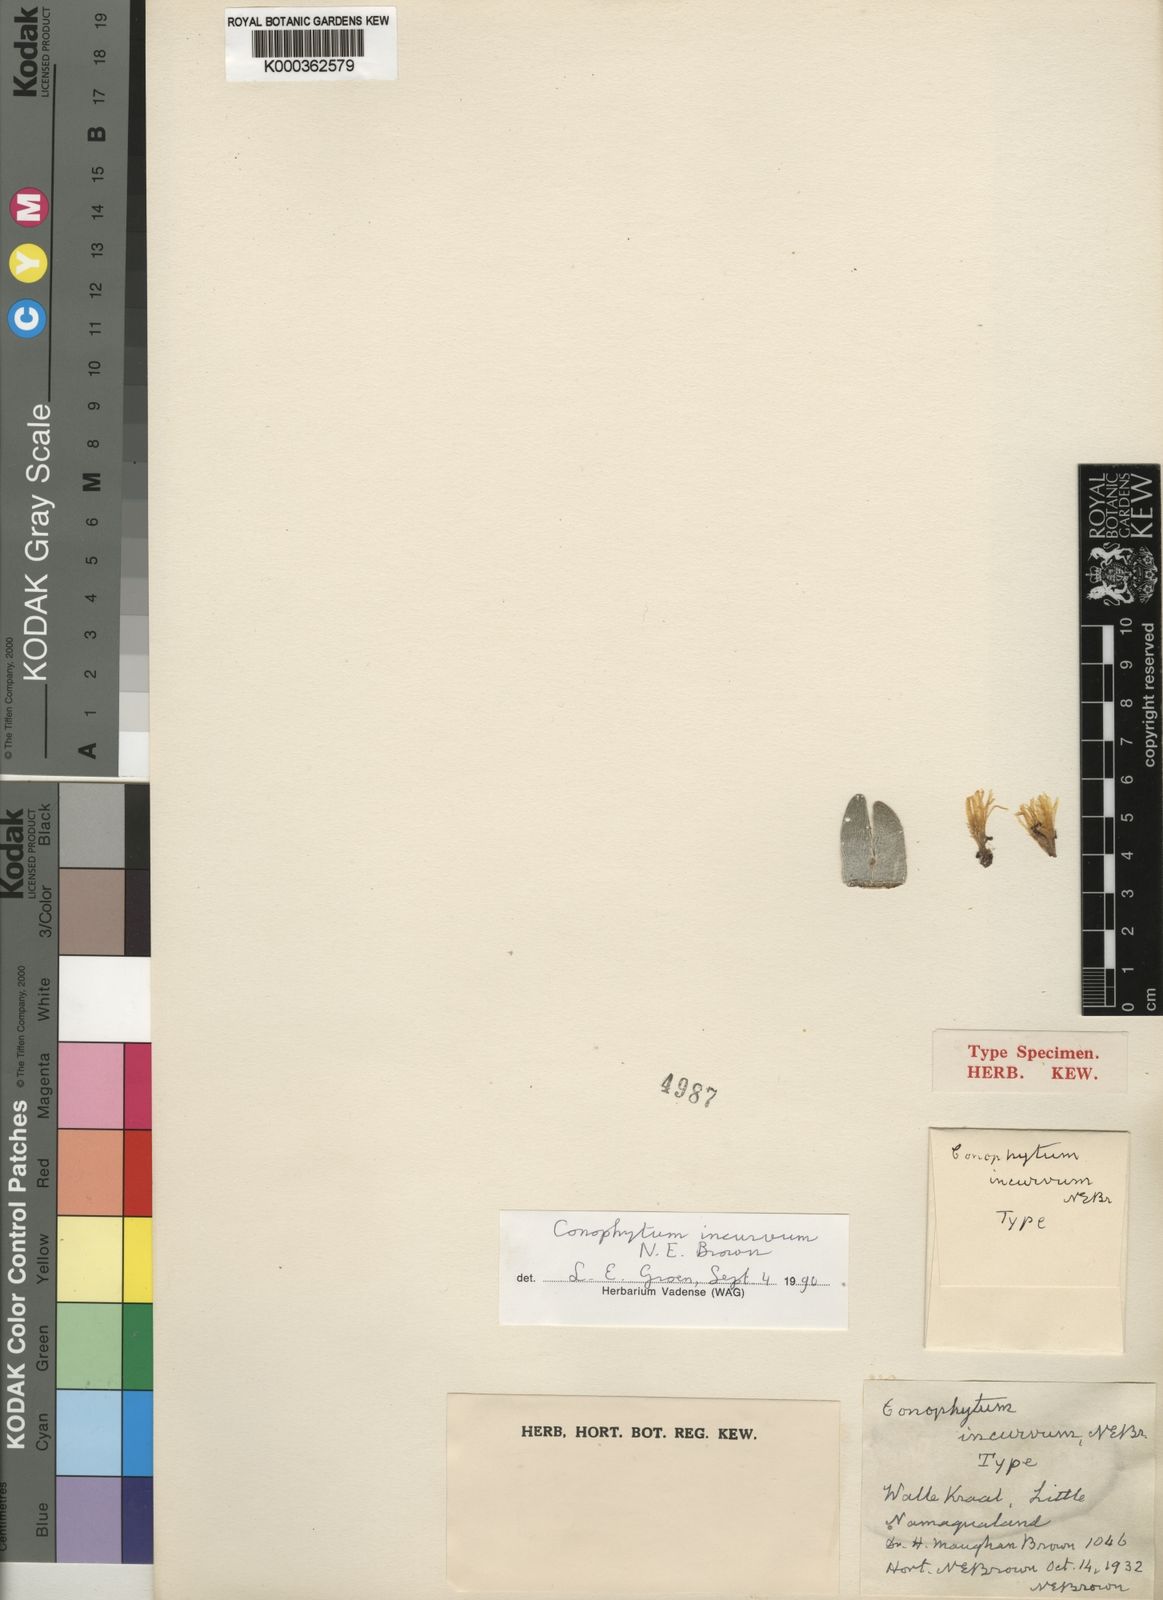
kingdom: Plantae
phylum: Tracheophyta
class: Magnoliopsida
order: Caryophyllales
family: Aizoaceae
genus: Conophytum
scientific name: Conophytum bilobum
